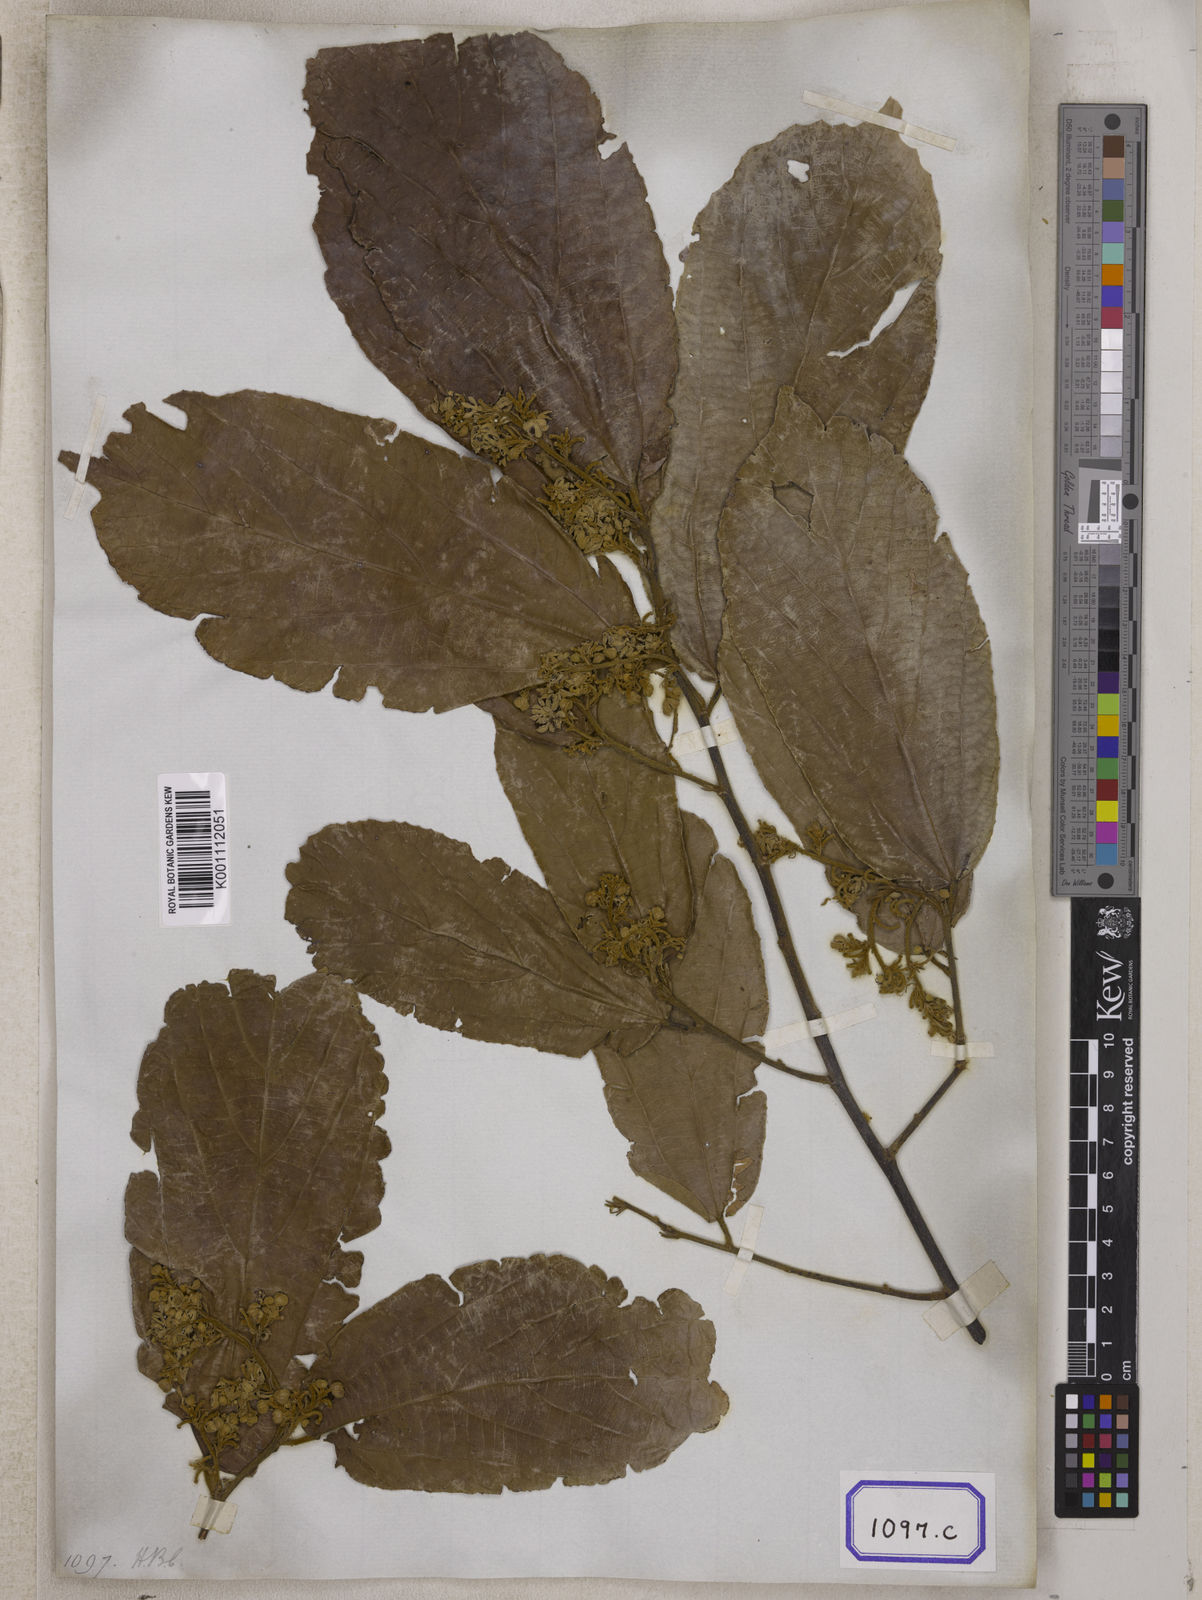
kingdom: Plantae
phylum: Tracheophyta
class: Magnoliopsida
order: Malvales
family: Malvaceae
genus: Grewia
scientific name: Grewia
